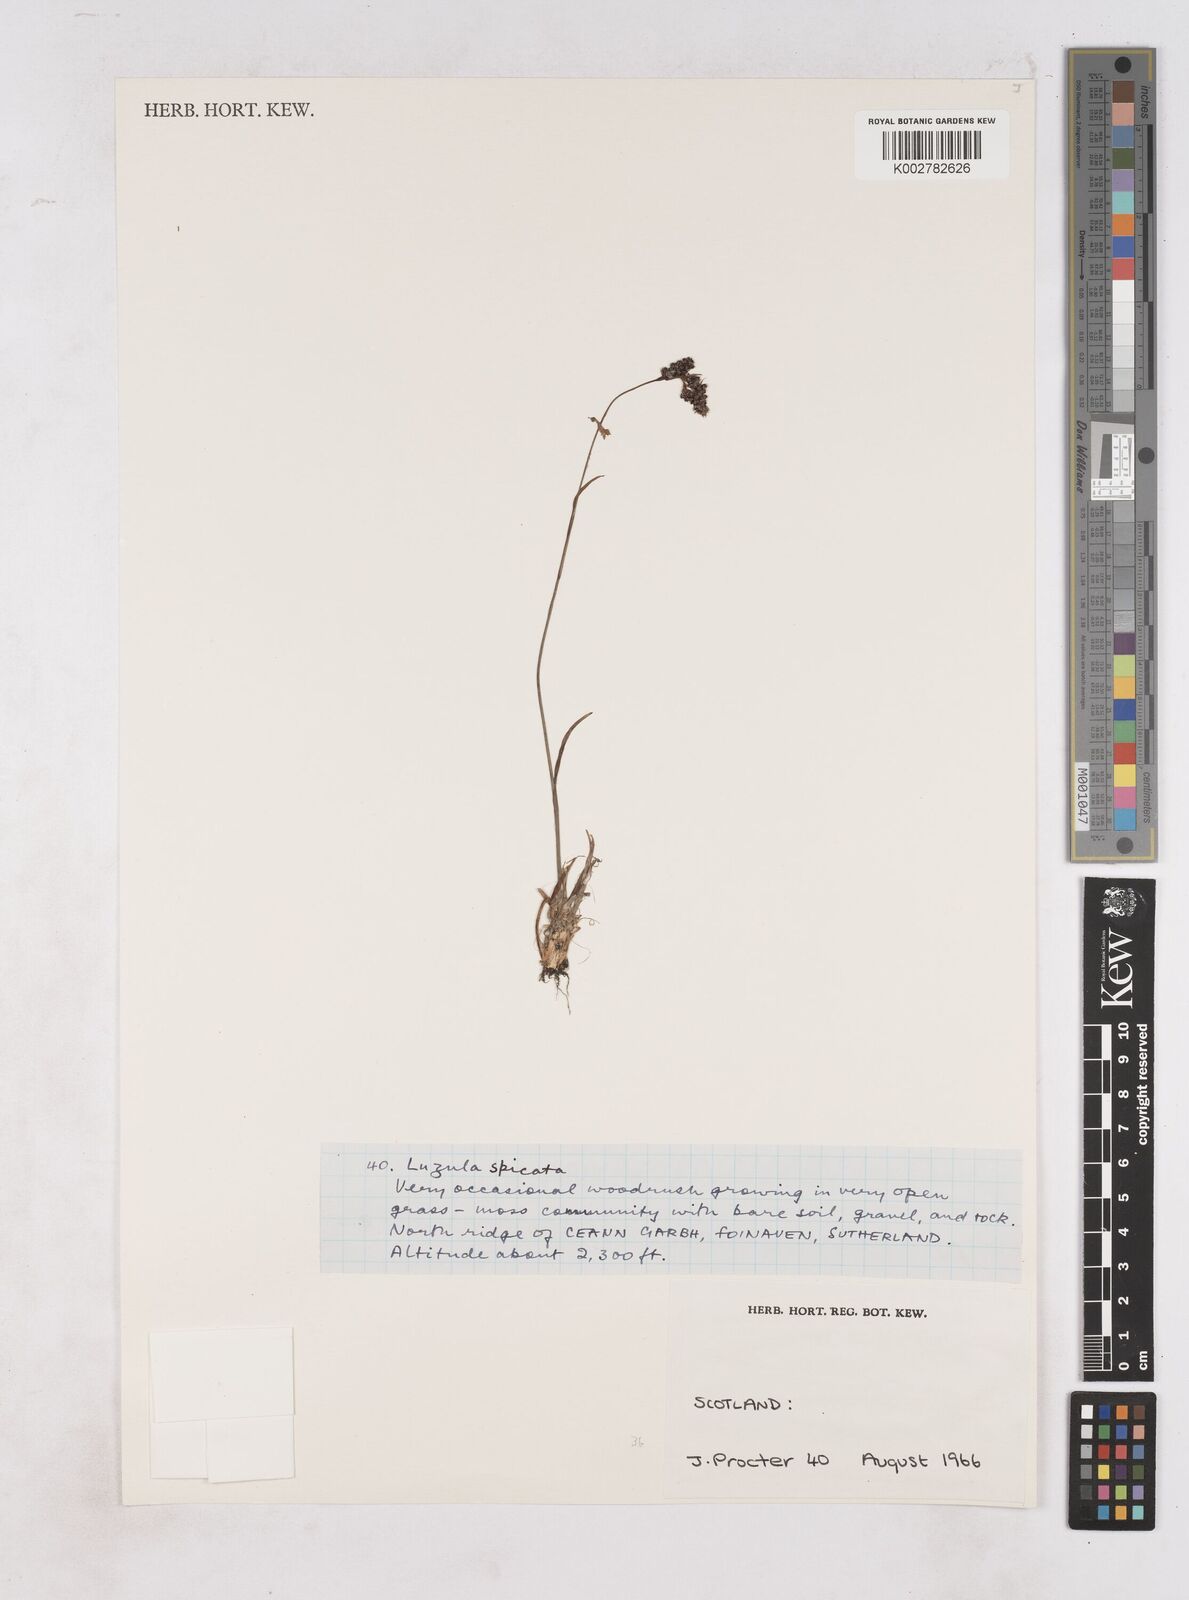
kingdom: Plantae
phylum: Tracheophyta
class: Liliopsida
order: Poales
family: Juncaceae
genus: Luzula
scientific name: Luzula spicata
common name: Spiked wood-rush
